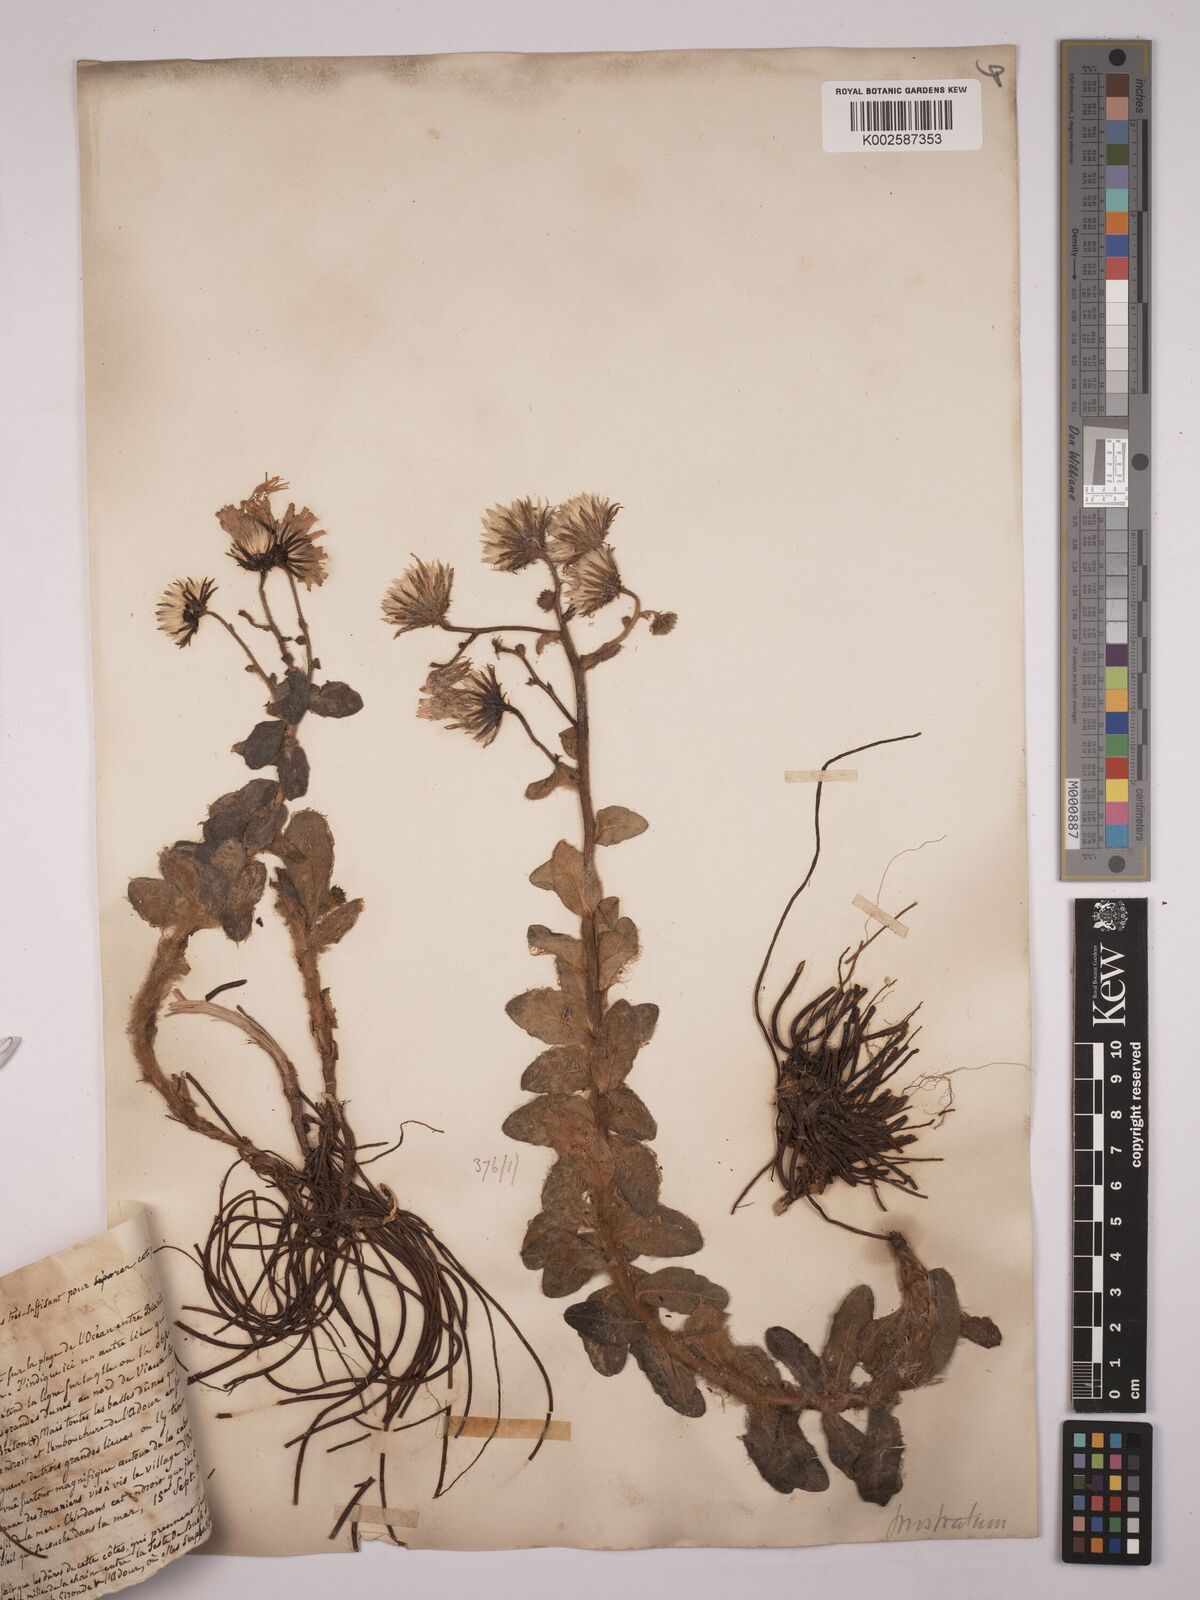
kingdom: Plantae
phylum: Tracheophyta
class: Magnoliopsida
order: Asterales
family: Asteraceae
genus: Hieracium
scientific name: Hieracium prostratum
